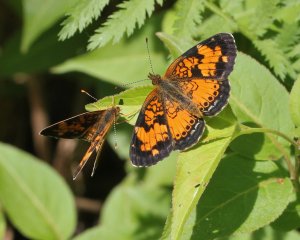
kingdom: Animalia
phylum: Arthropoda
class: Insecta
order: Lepidoptera
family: Nymphalidae
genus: Phyciodes
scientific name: Phyciodes tharos
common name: Northern Crescent
